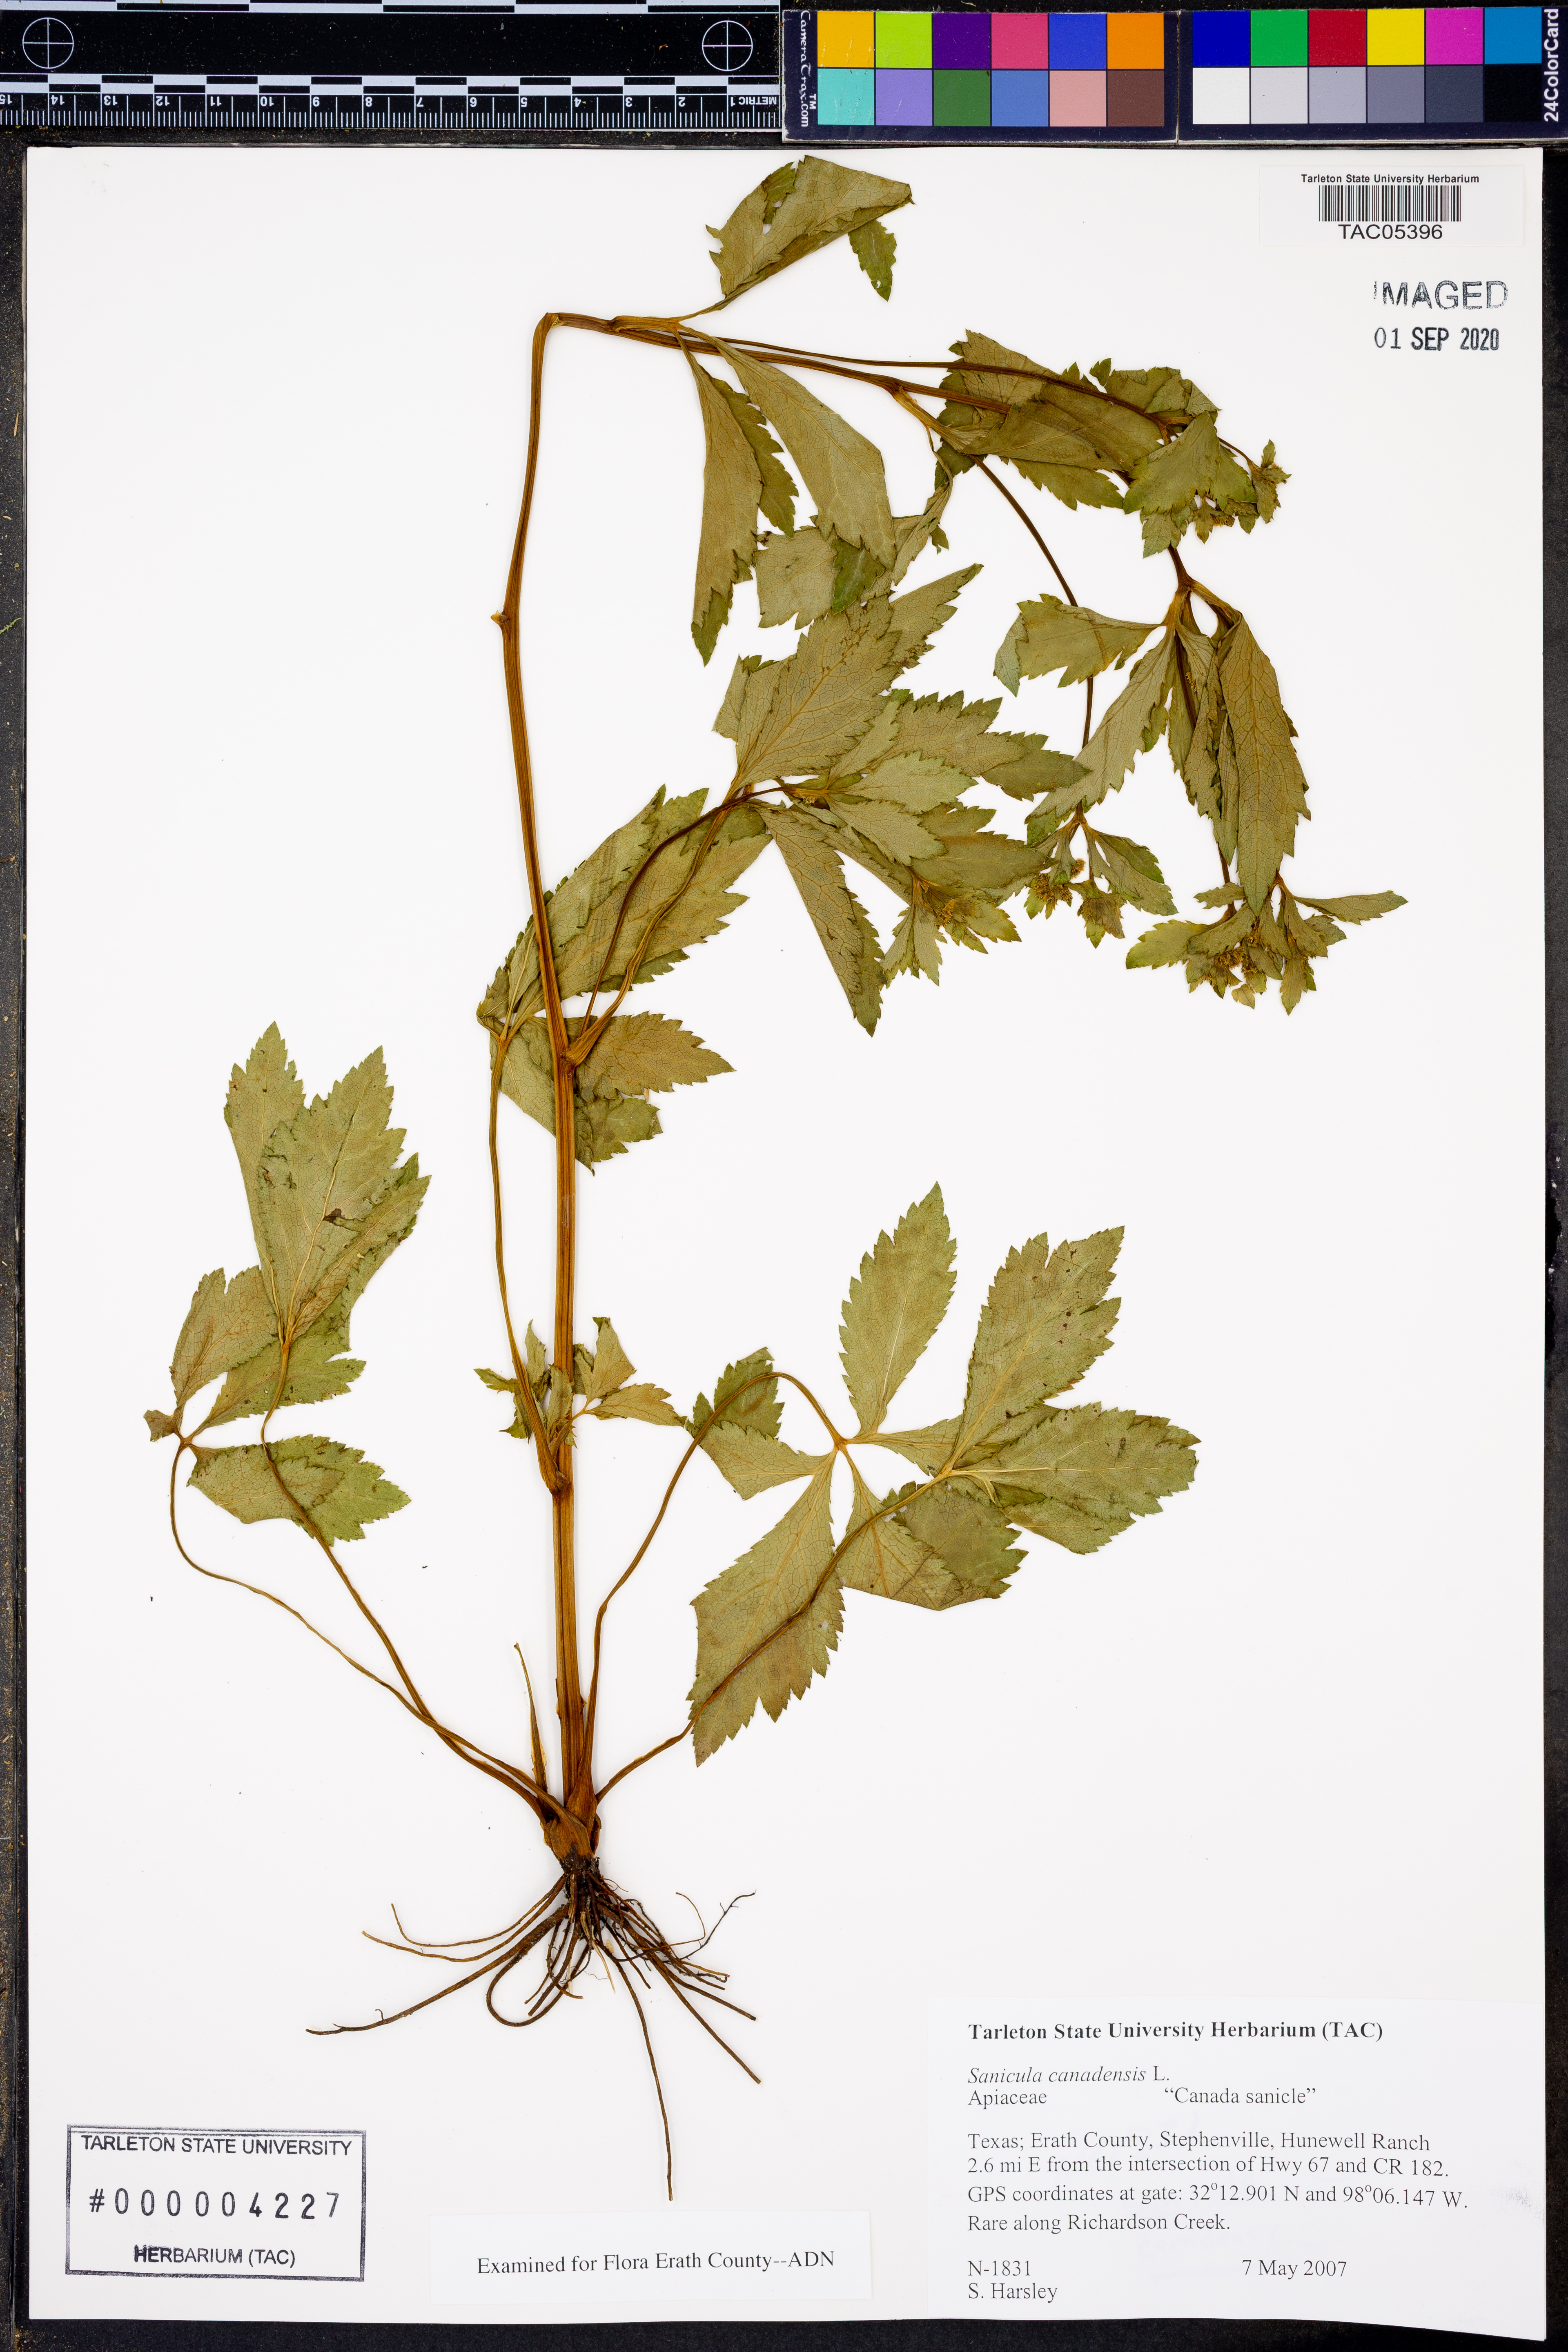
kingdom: Plantae
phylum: Tracheophyta
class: Magnoliopsida
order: Apiales
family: Apiaceae
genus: Sanicula
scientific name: Sanicula canadensis
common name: Canada sanicle
